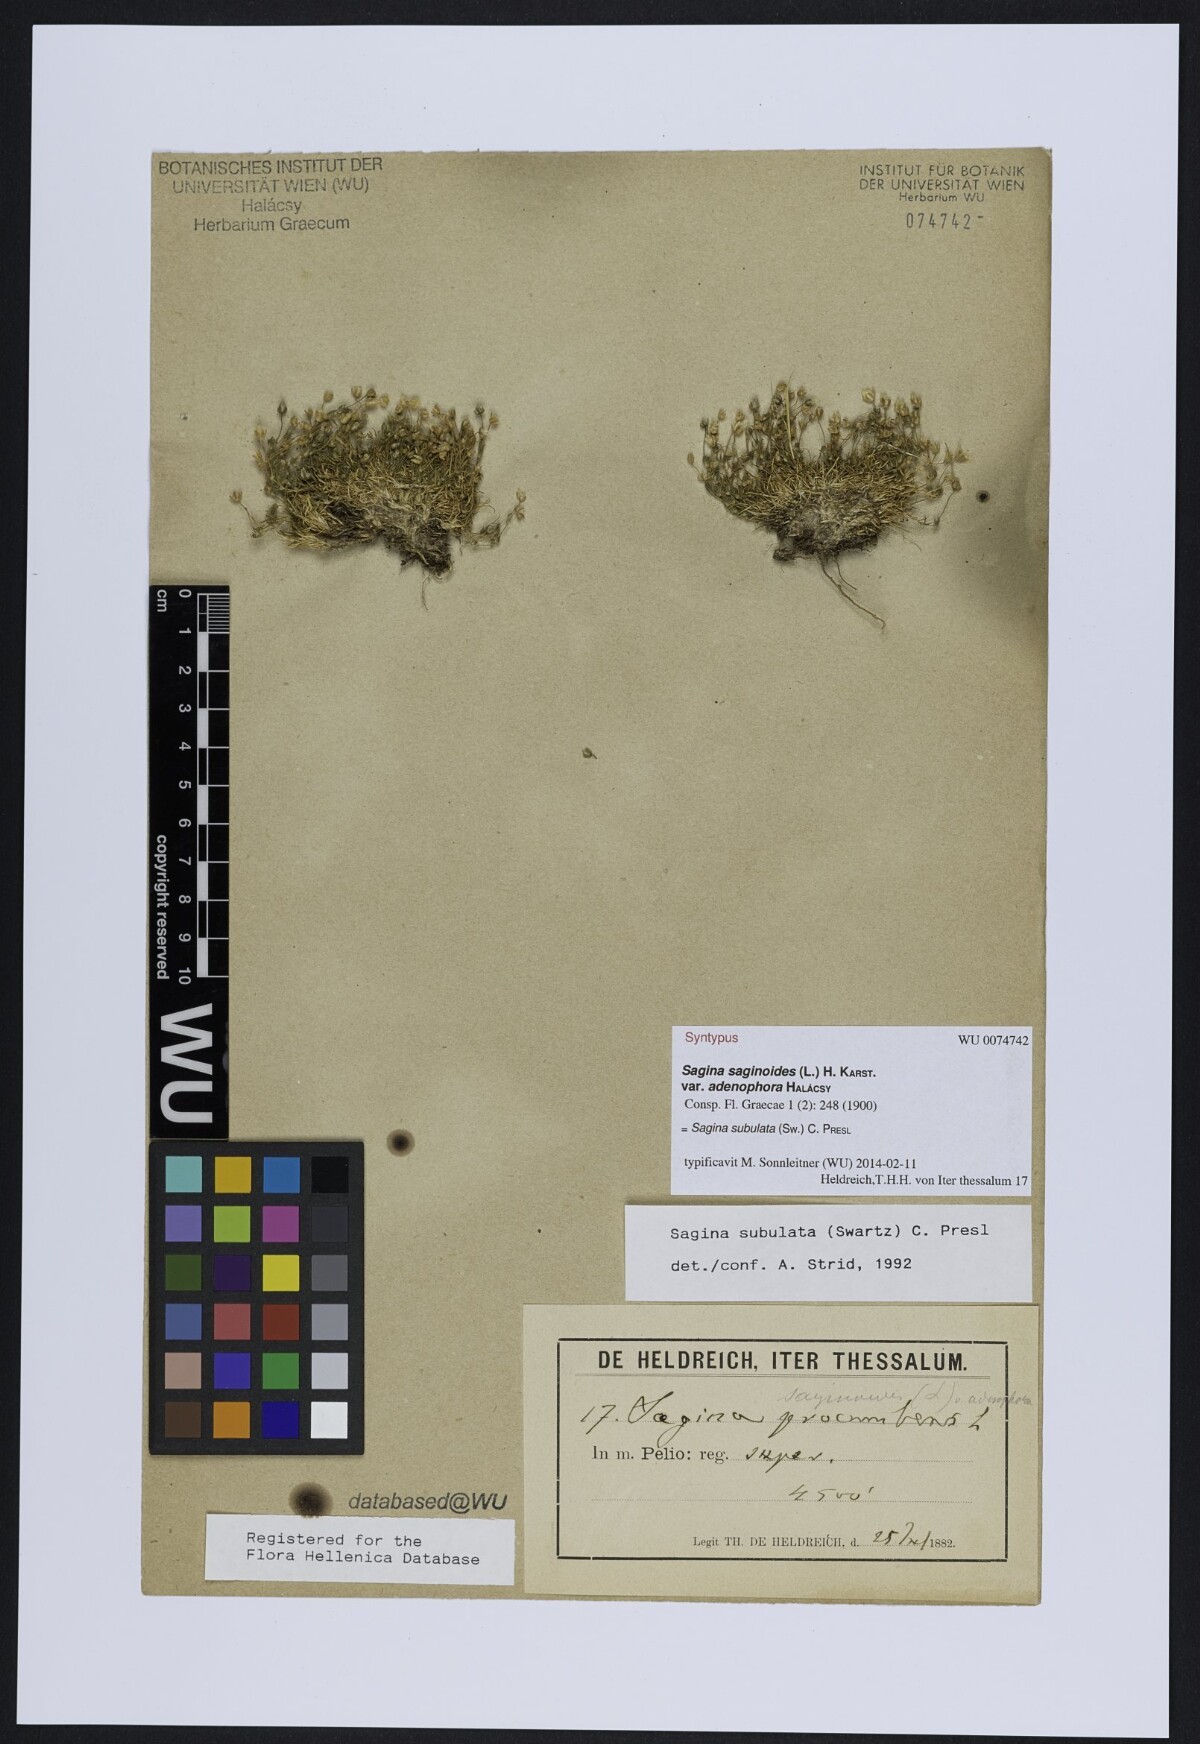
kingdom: Plantae
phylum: Tracheophyta
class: Magnoliopsida
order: Caryophyllales
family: Caryophyllaceae
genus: Sagina
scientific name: Sagina alexandrae
